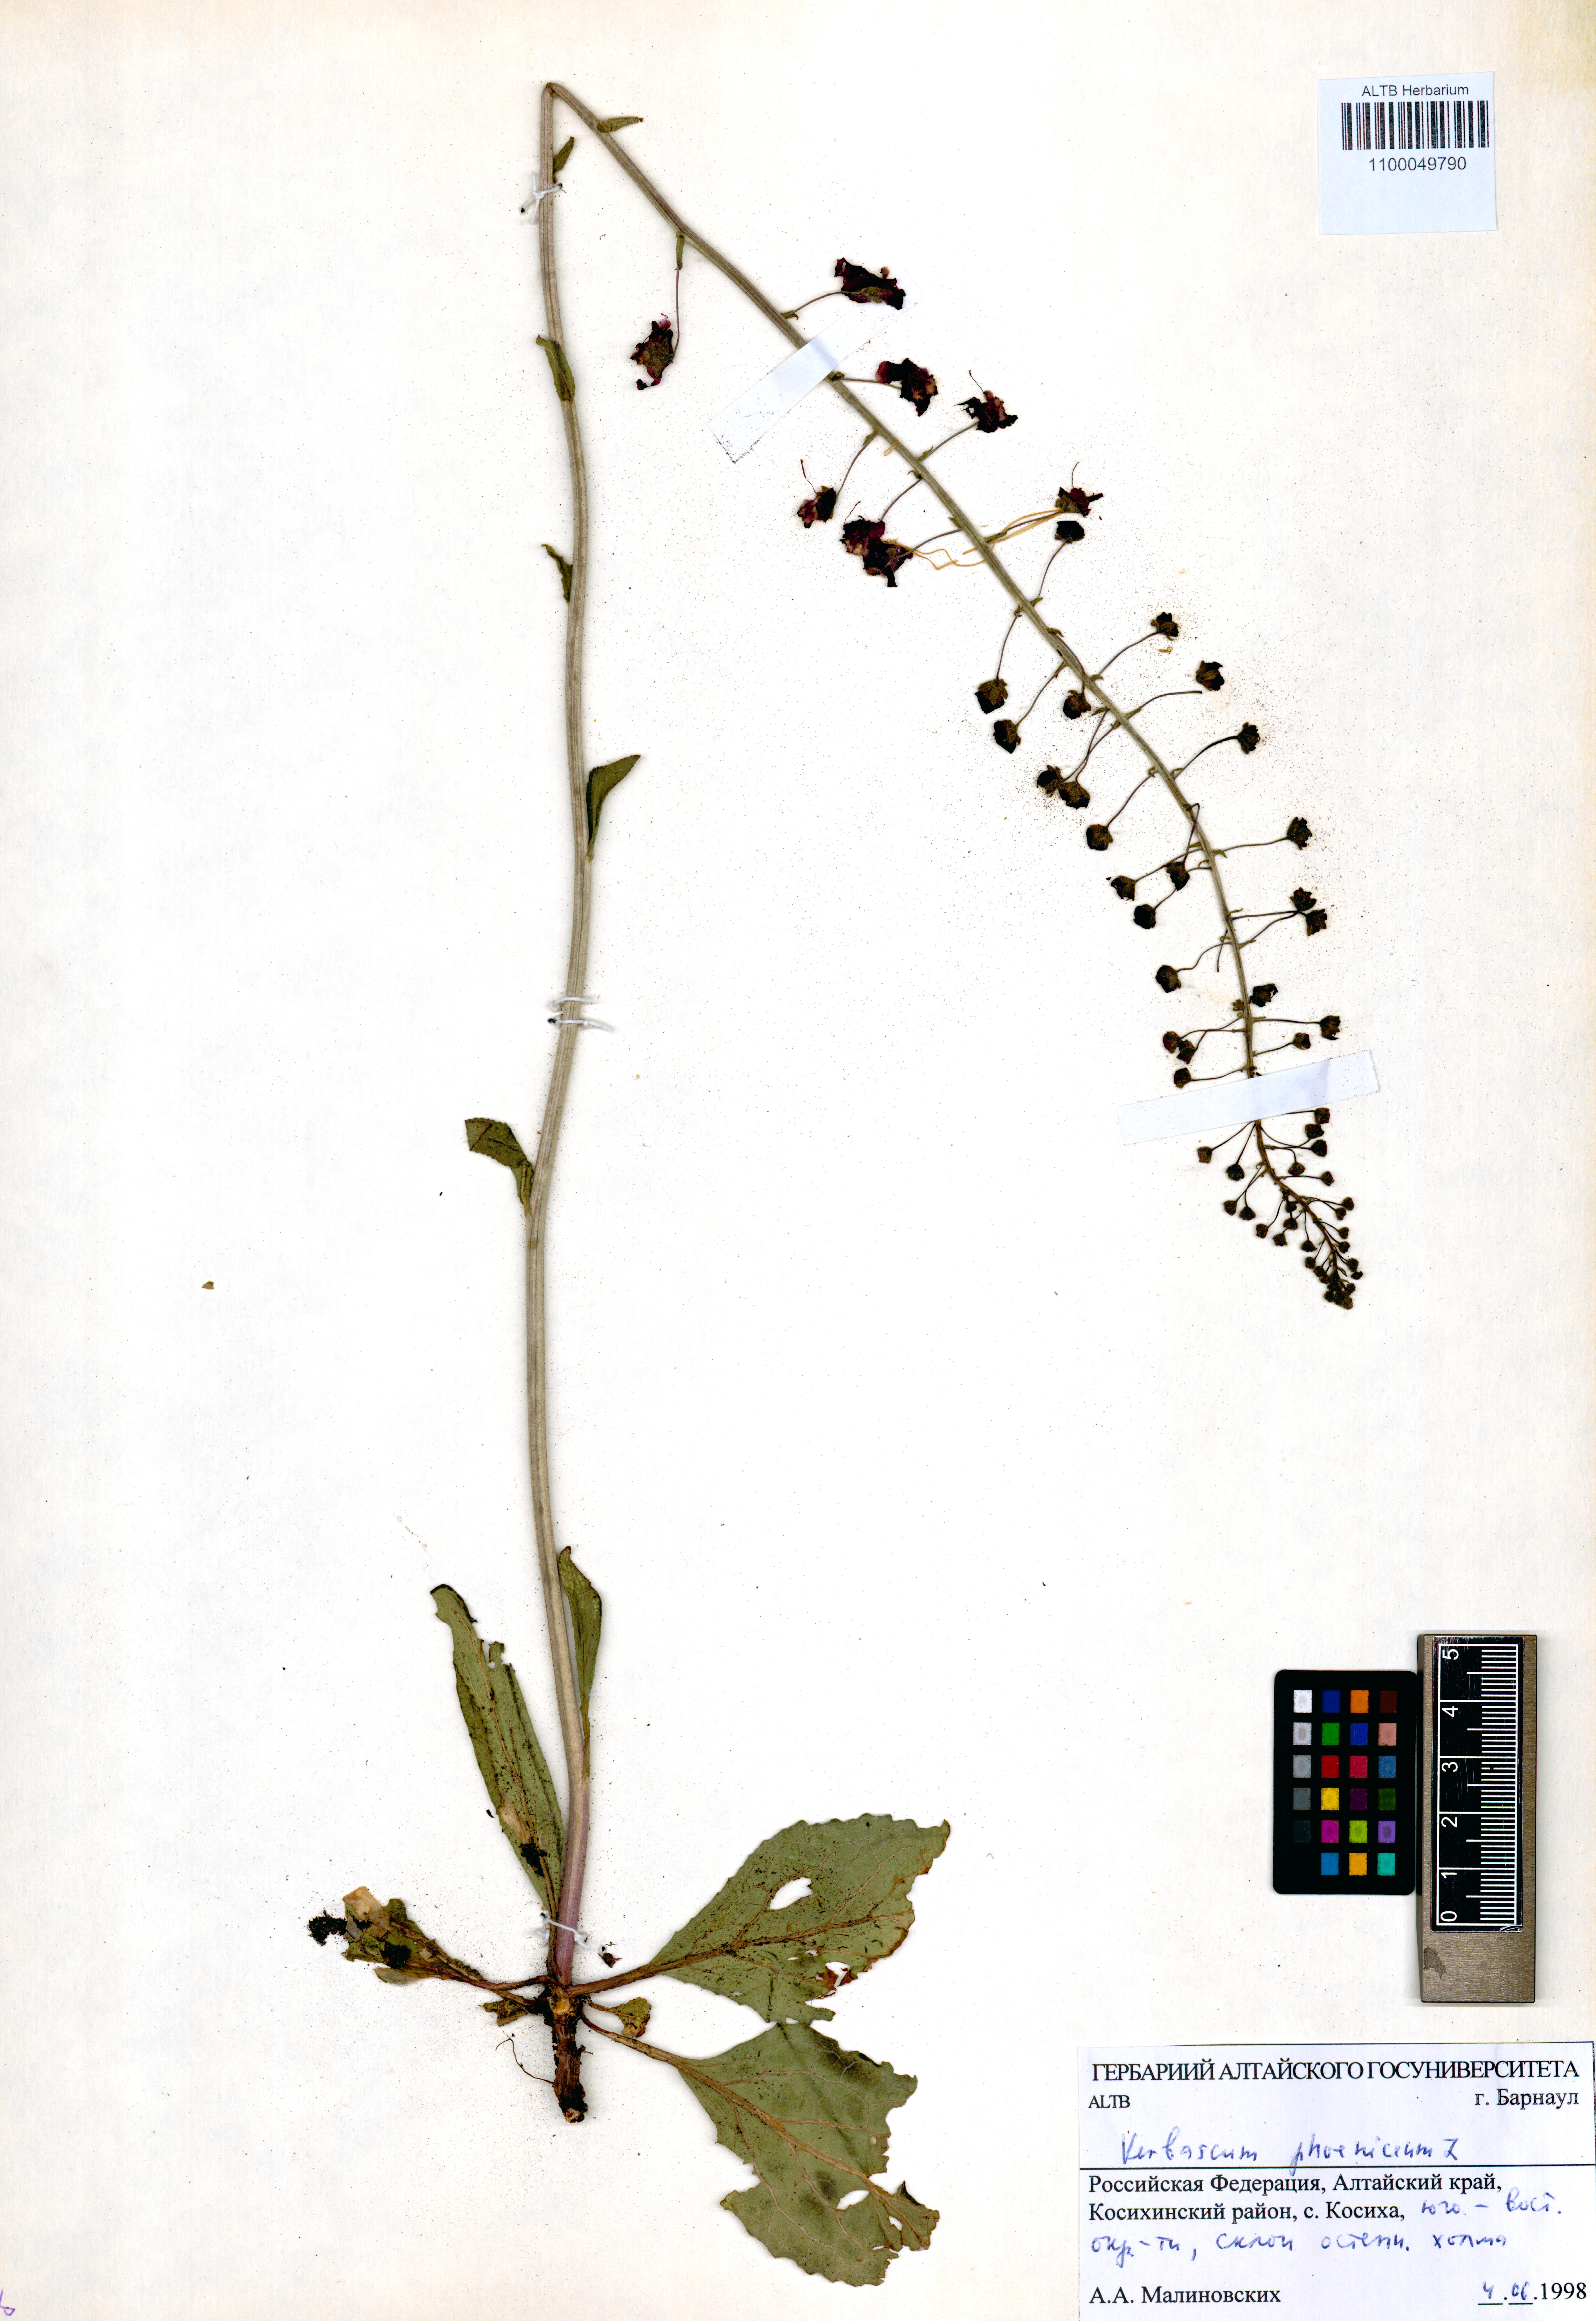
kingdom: Plantae
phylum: Tracheophyta
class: Magnoliopsida
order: Lamiales
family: Scrophulariaceae
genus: Verbascum
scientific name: Verbascum phoeniceum
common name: Purple mullein
